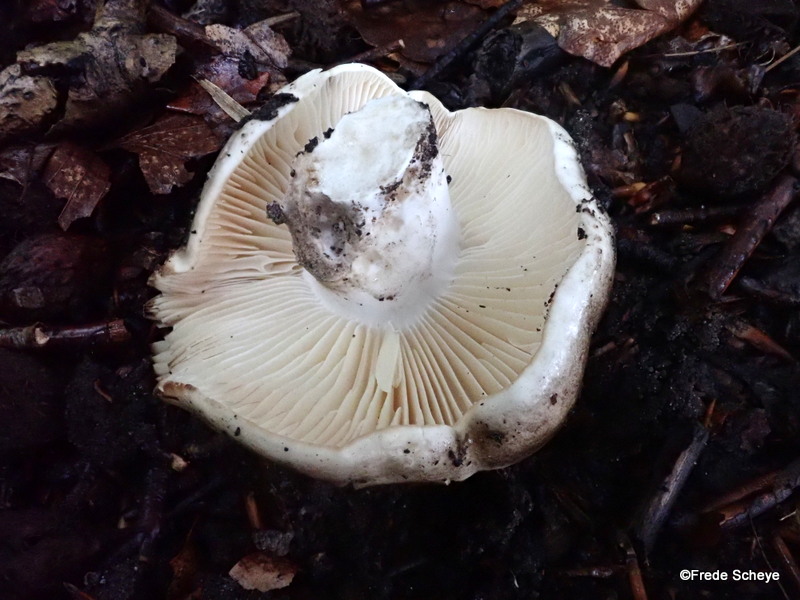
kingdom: Fungi
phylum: Basidiomycota
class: Agaricomycetes
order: Russulales
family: Russulaceae
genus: Russula
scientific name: Russula adusta
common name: sværtende skørhat
